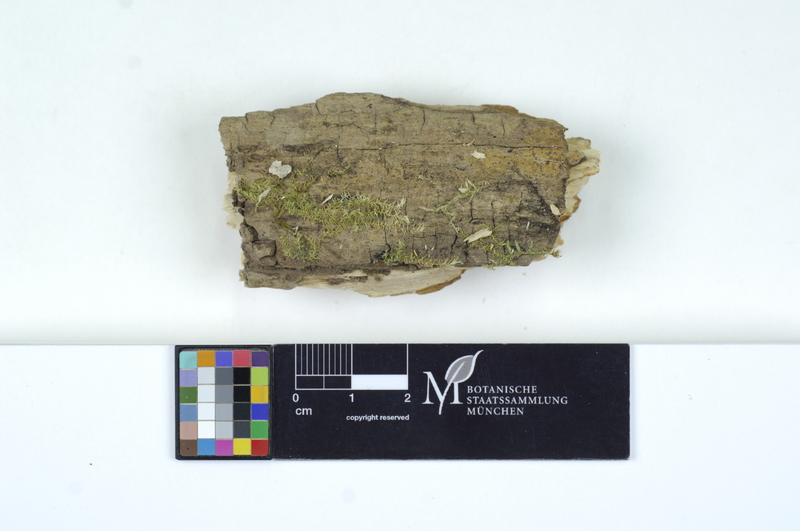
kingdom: Fungi
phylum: Basidiomycota
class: Microbotryomycetes
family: Colacogloeaceae
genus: Colacogloea
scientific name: Colacogloea peniophorae
